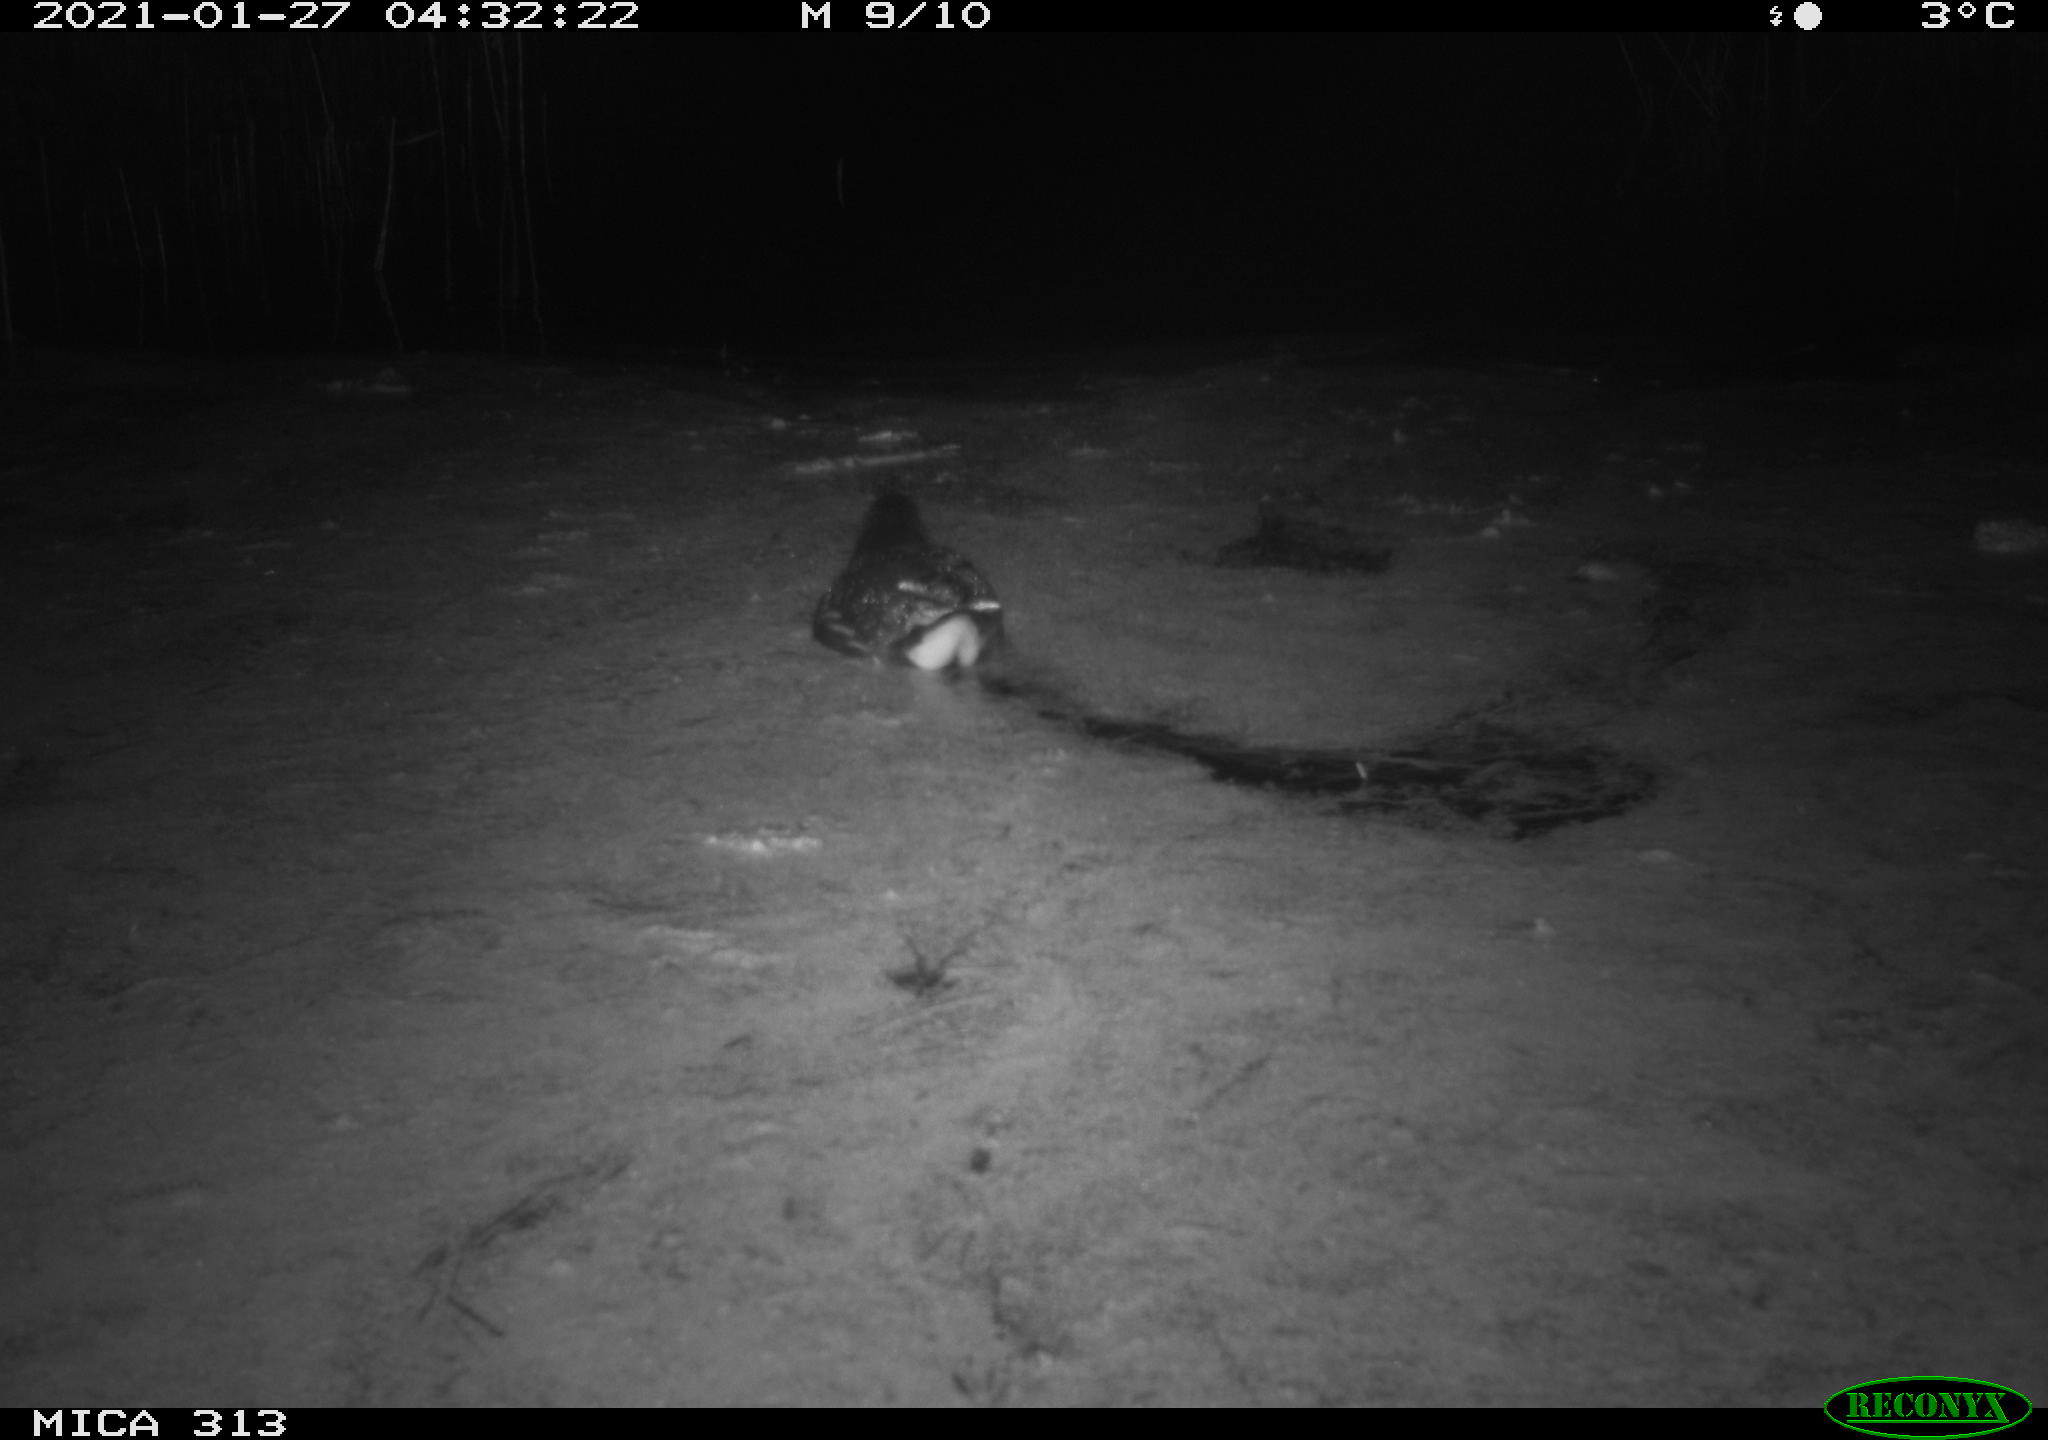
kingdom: Animalia
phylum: Chordata
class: Aves
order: Gruiformes
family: Rallidae
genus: Gallinula
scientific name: Gallinula chloropus
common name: Common moorhen
